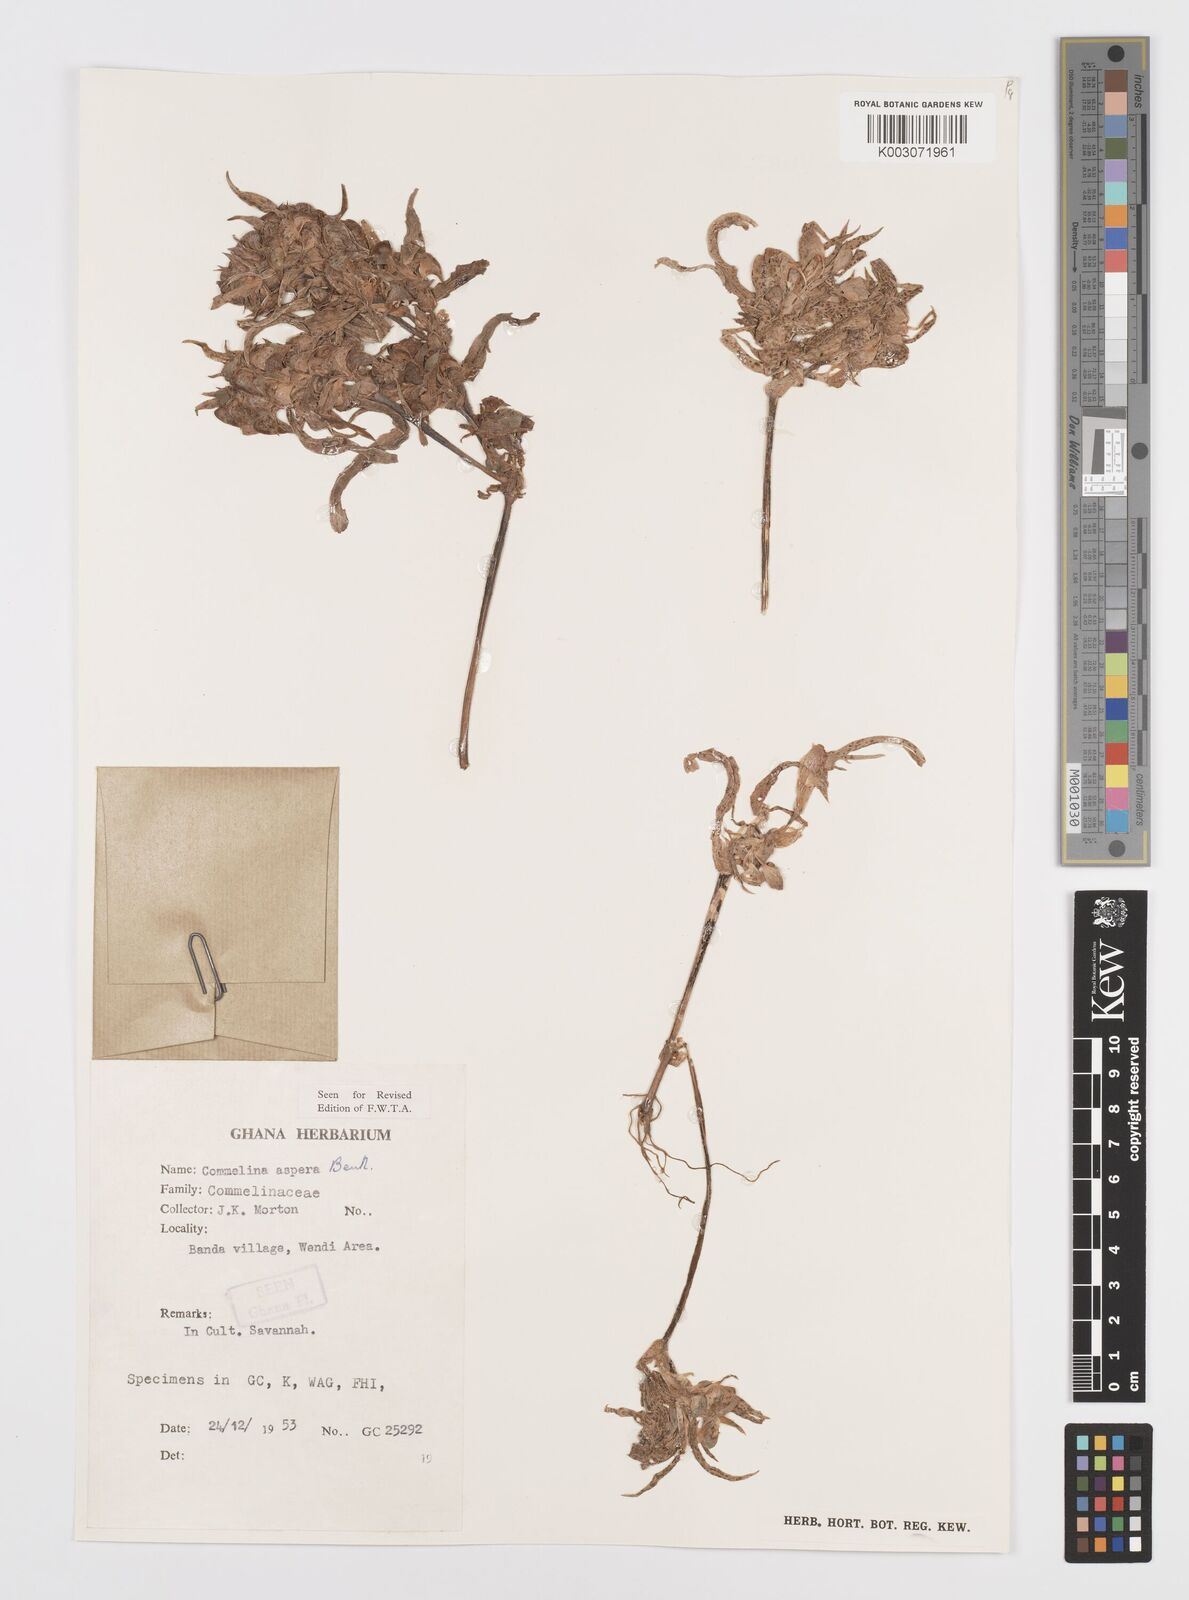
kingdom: Plantae
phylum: Tracheophyta
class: Liliopsida
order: Commelinales
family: Commelinaceae
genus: Commelina
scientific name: Commelina aspera
